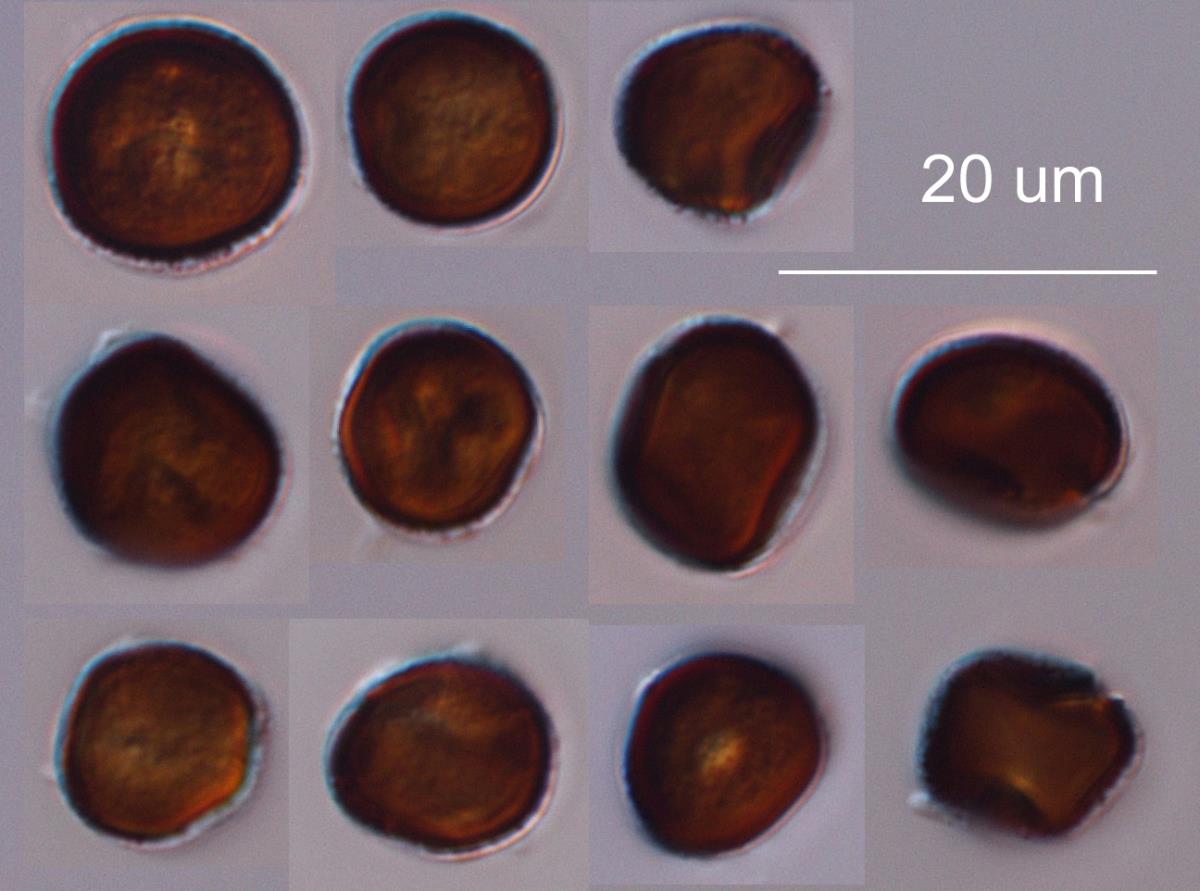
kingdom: Fungi
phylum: Basidiomycota
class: Ustilaginomycetes
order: Ustilaginales
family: Ustilaginaceae
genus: Ustilago
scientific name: Ustilago agropyri
